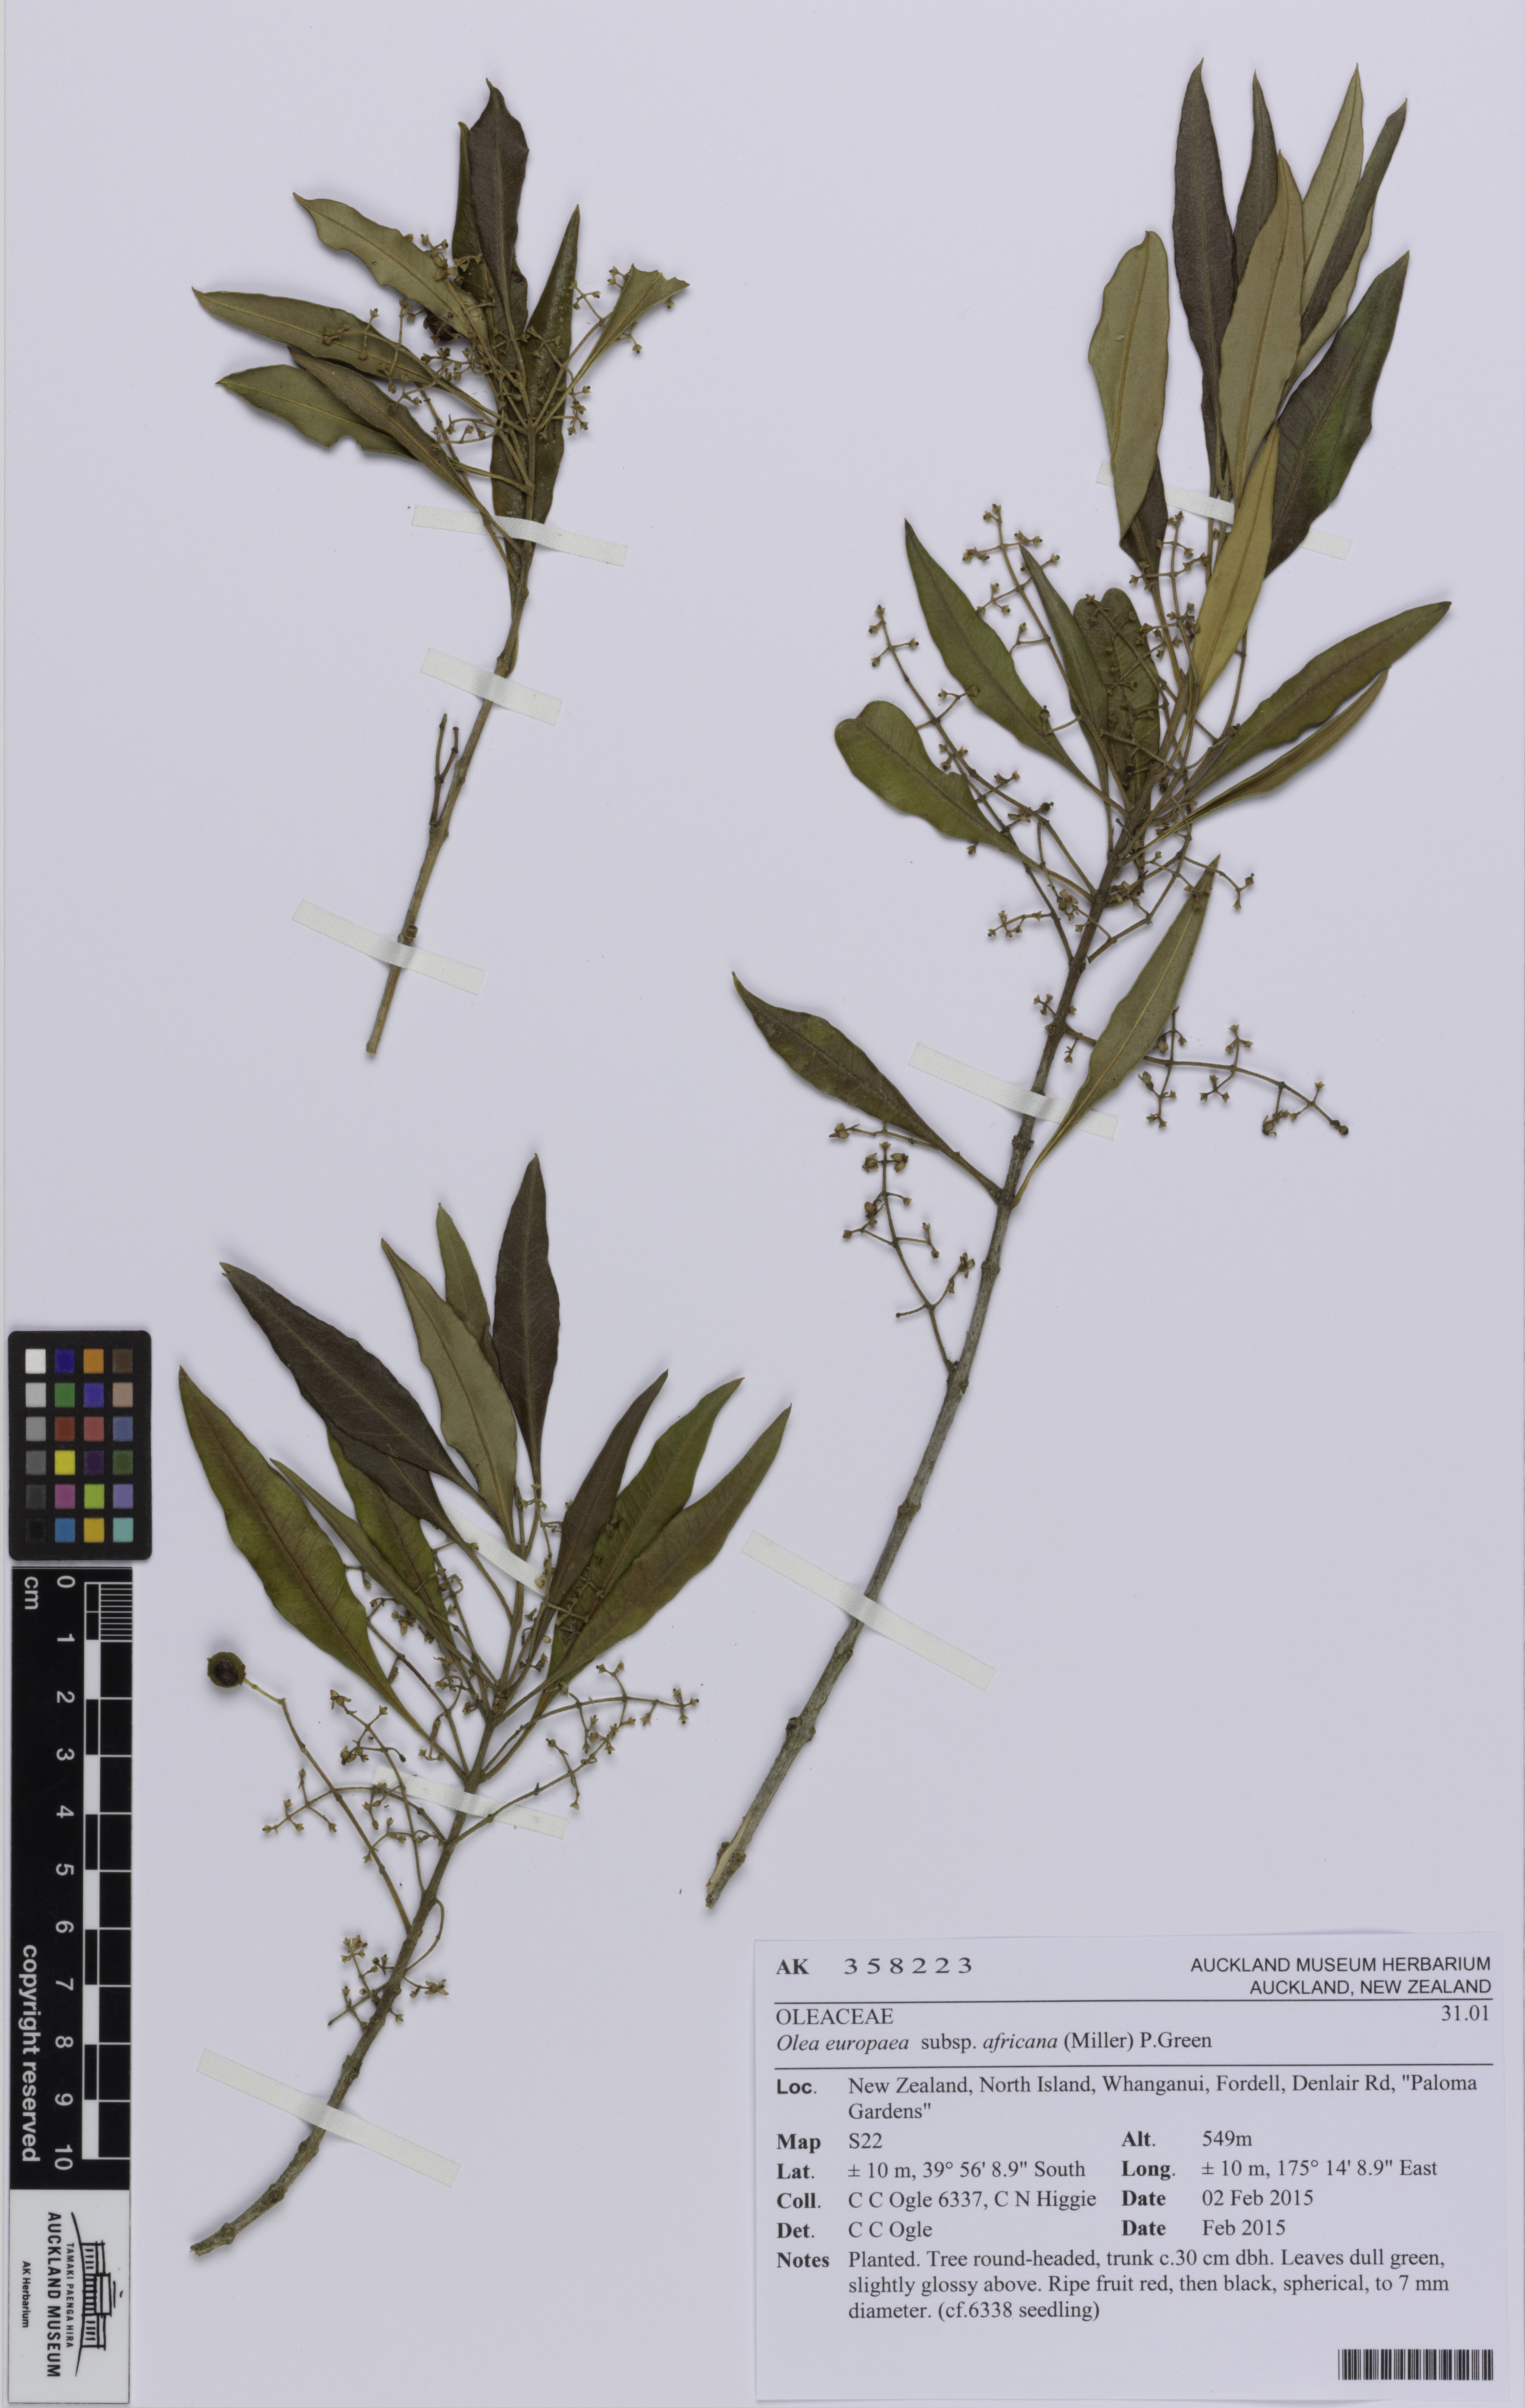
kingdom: Plantae
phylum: Tracheophyta
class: Magnoliopsida
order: Lamiales
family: Oleaceae
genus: Olea
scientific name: Olea europaea
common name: Olive
